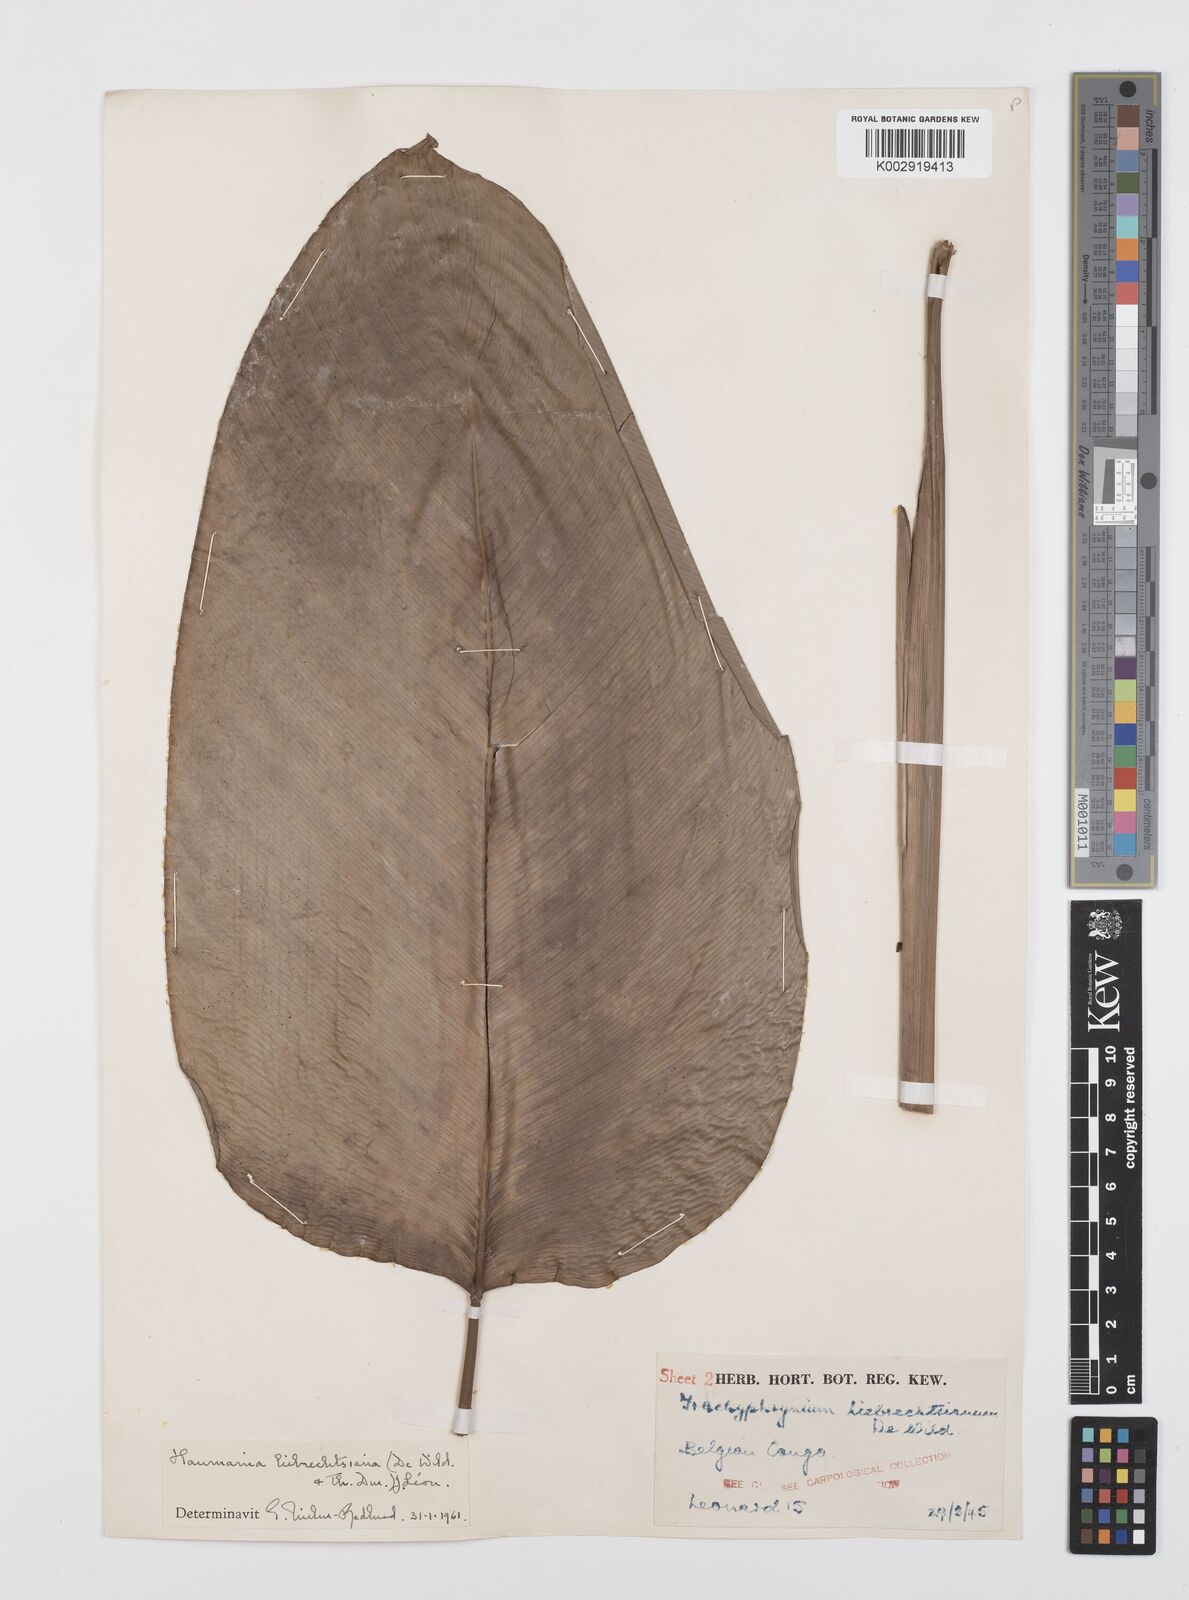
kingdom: Plantae
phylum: Tracheophyta
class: Liliopsida
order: Zingiberales
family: Marantaceae
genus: Haumania
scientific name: Haumania liebrechtsiana
